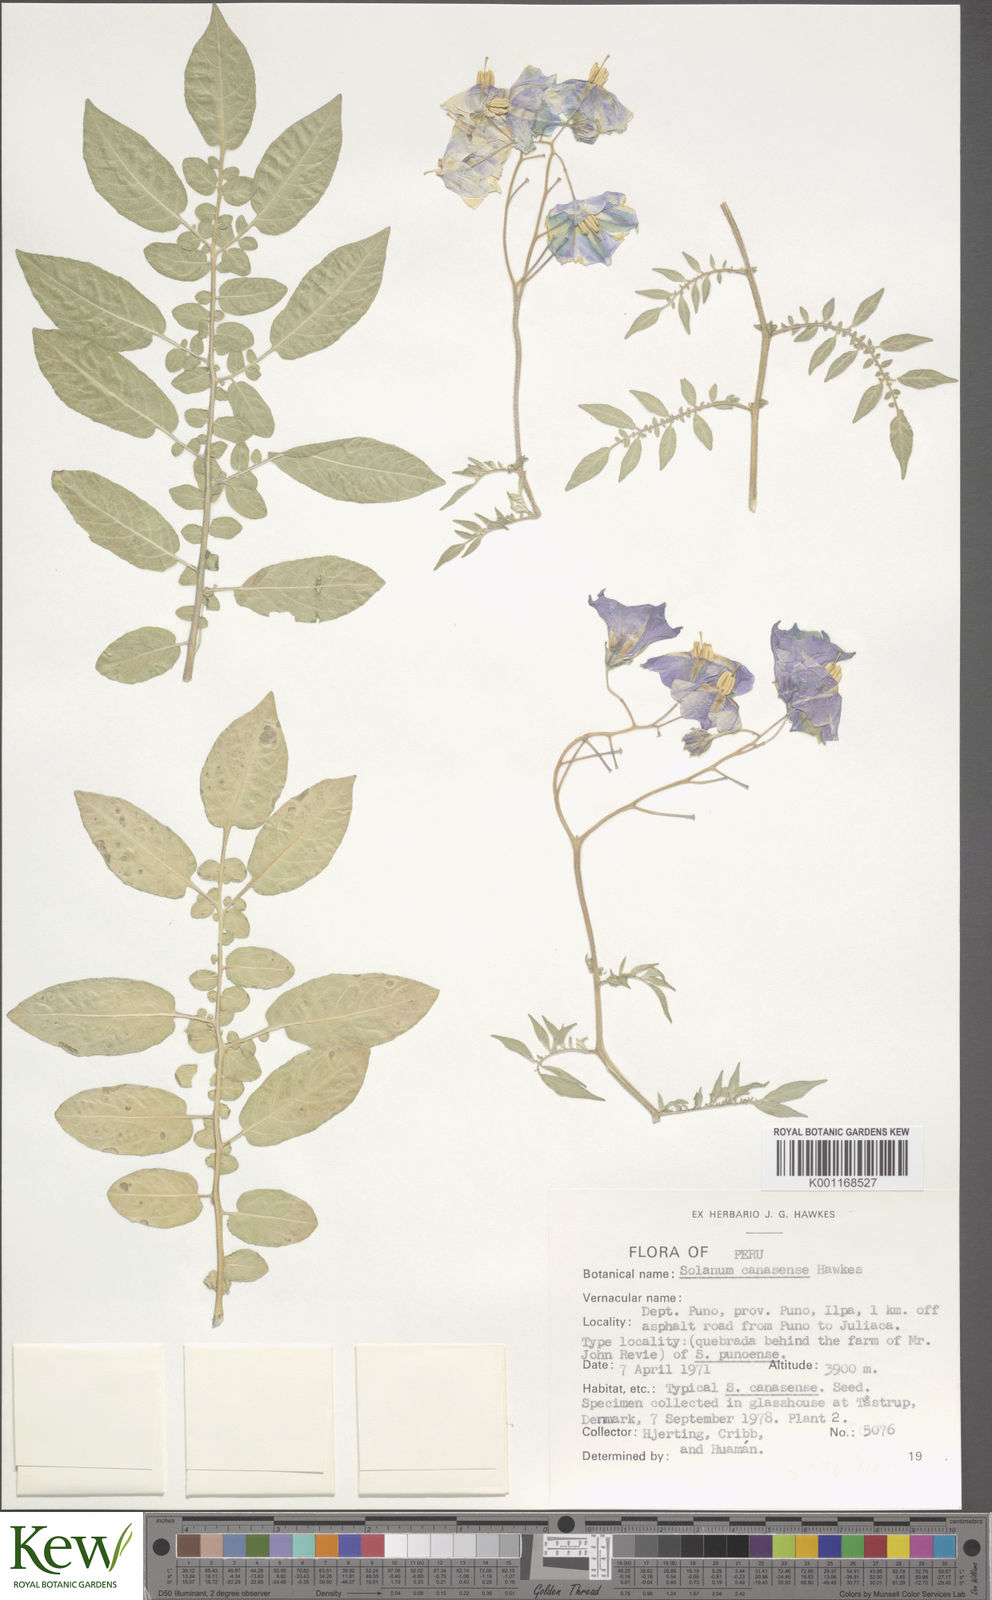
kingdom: Plantae
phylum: Tracheophyta
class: Magnoliopsida
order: Solanales
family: Solanaceae
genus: Solanum
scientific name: Solanum candolleanum
